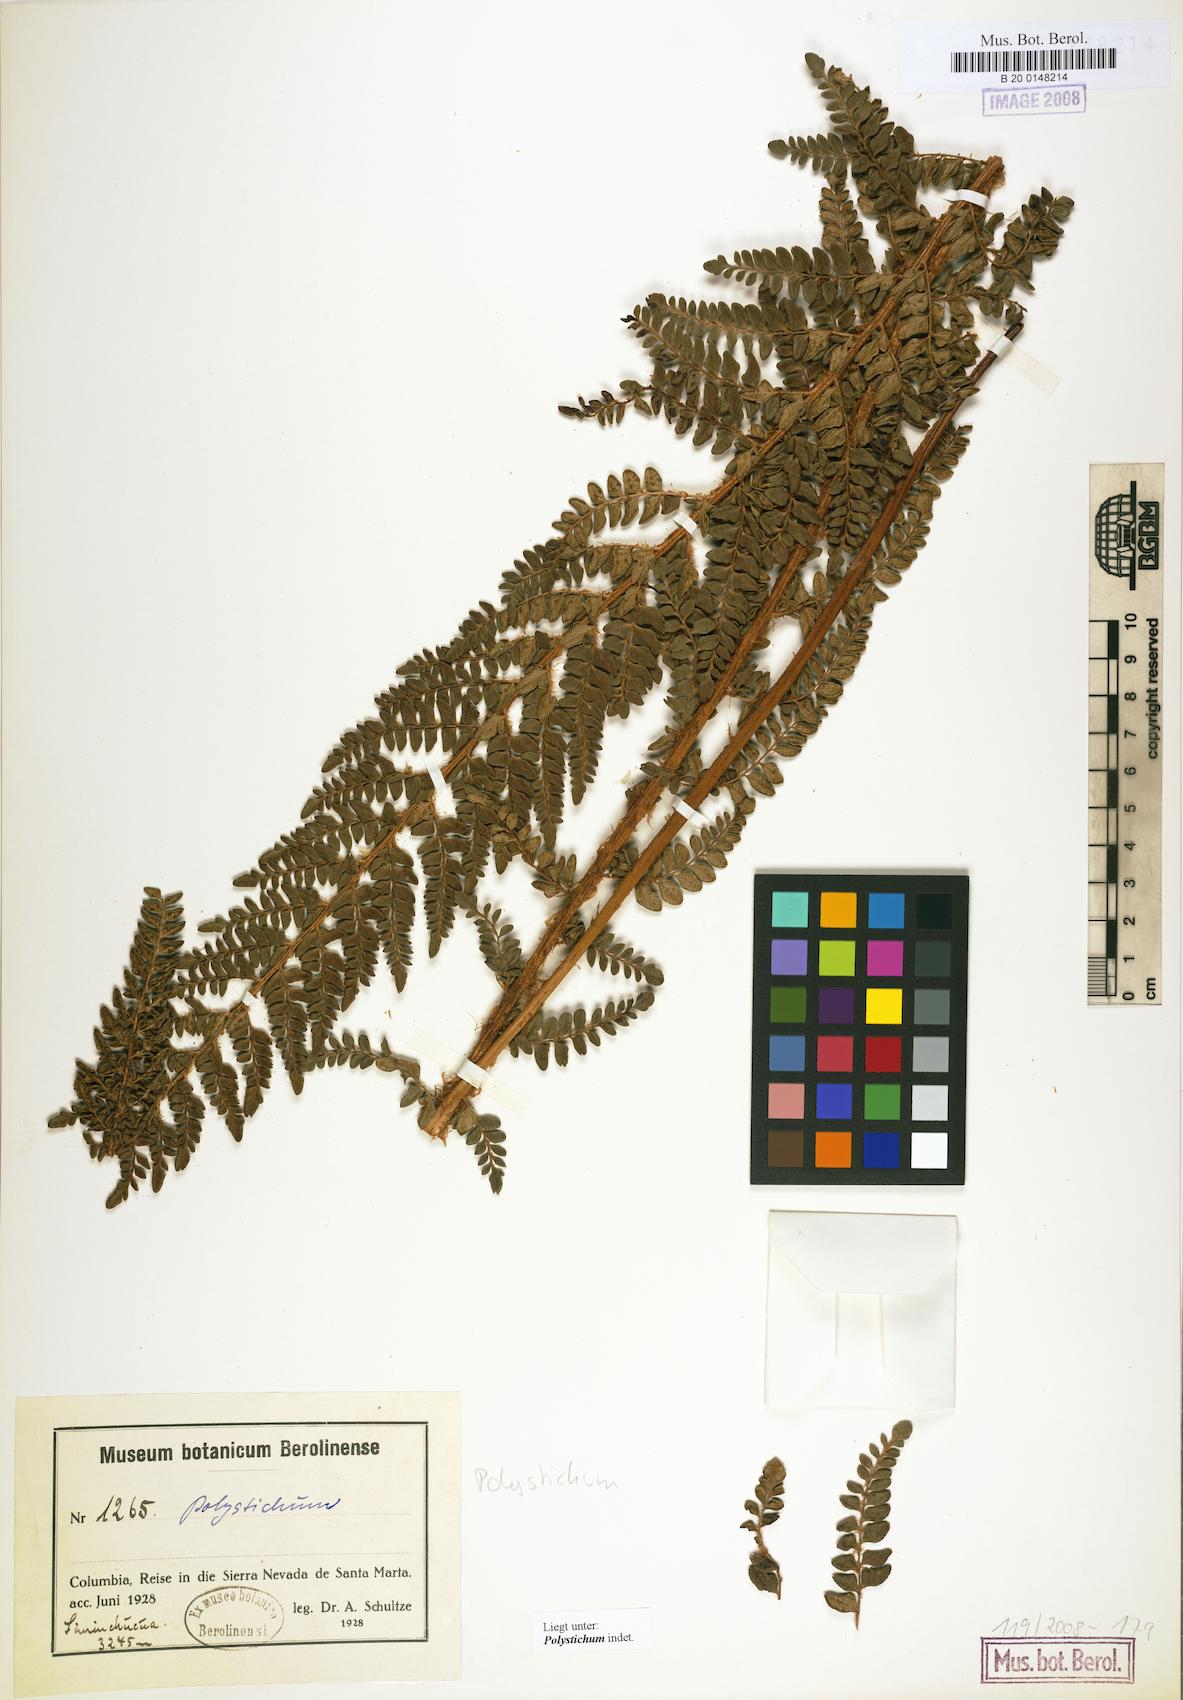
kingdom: Plantae
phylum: Tracheophyta
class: Polypodiopsida
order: Polypodiales
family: Dryopteridaceae
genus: Polystichum
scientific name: Polystichum
